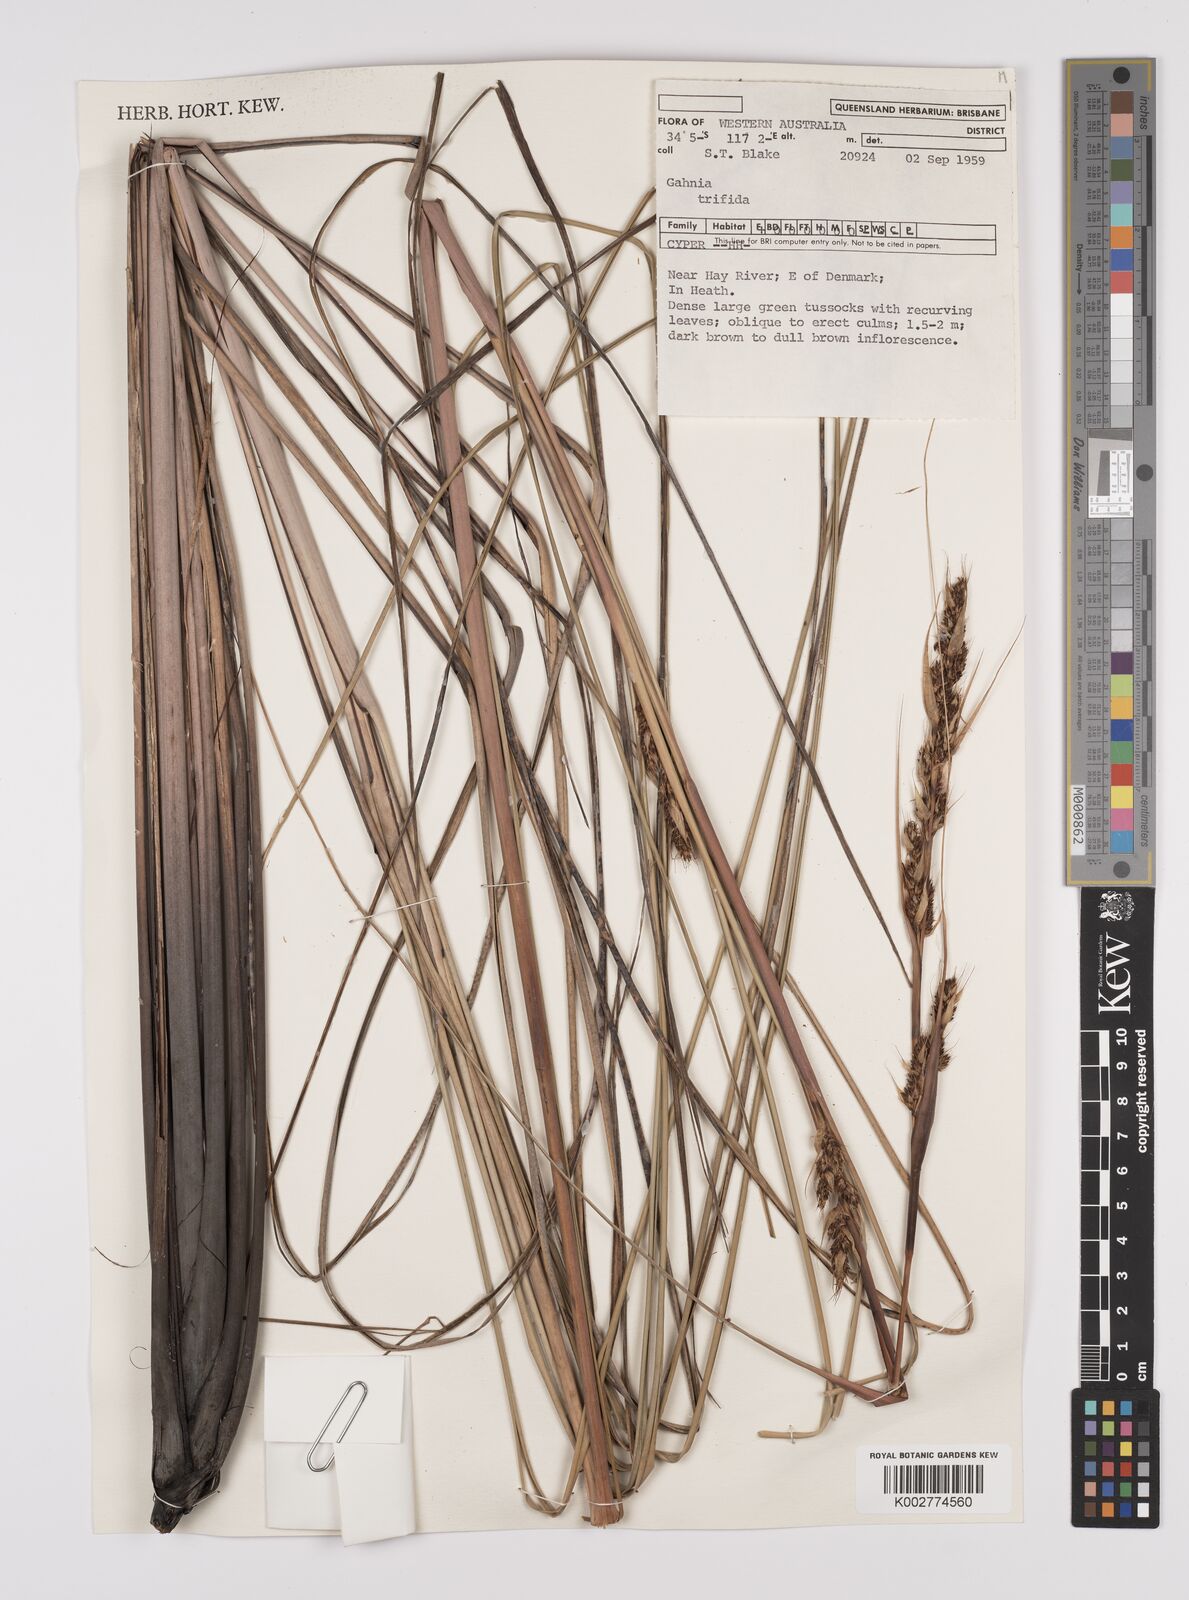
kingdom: Plantae
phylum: Tracheophyta
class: Liliopsida
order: Poales
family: Cyperaceae
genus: Gahnia
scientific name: Gahnia trifida
